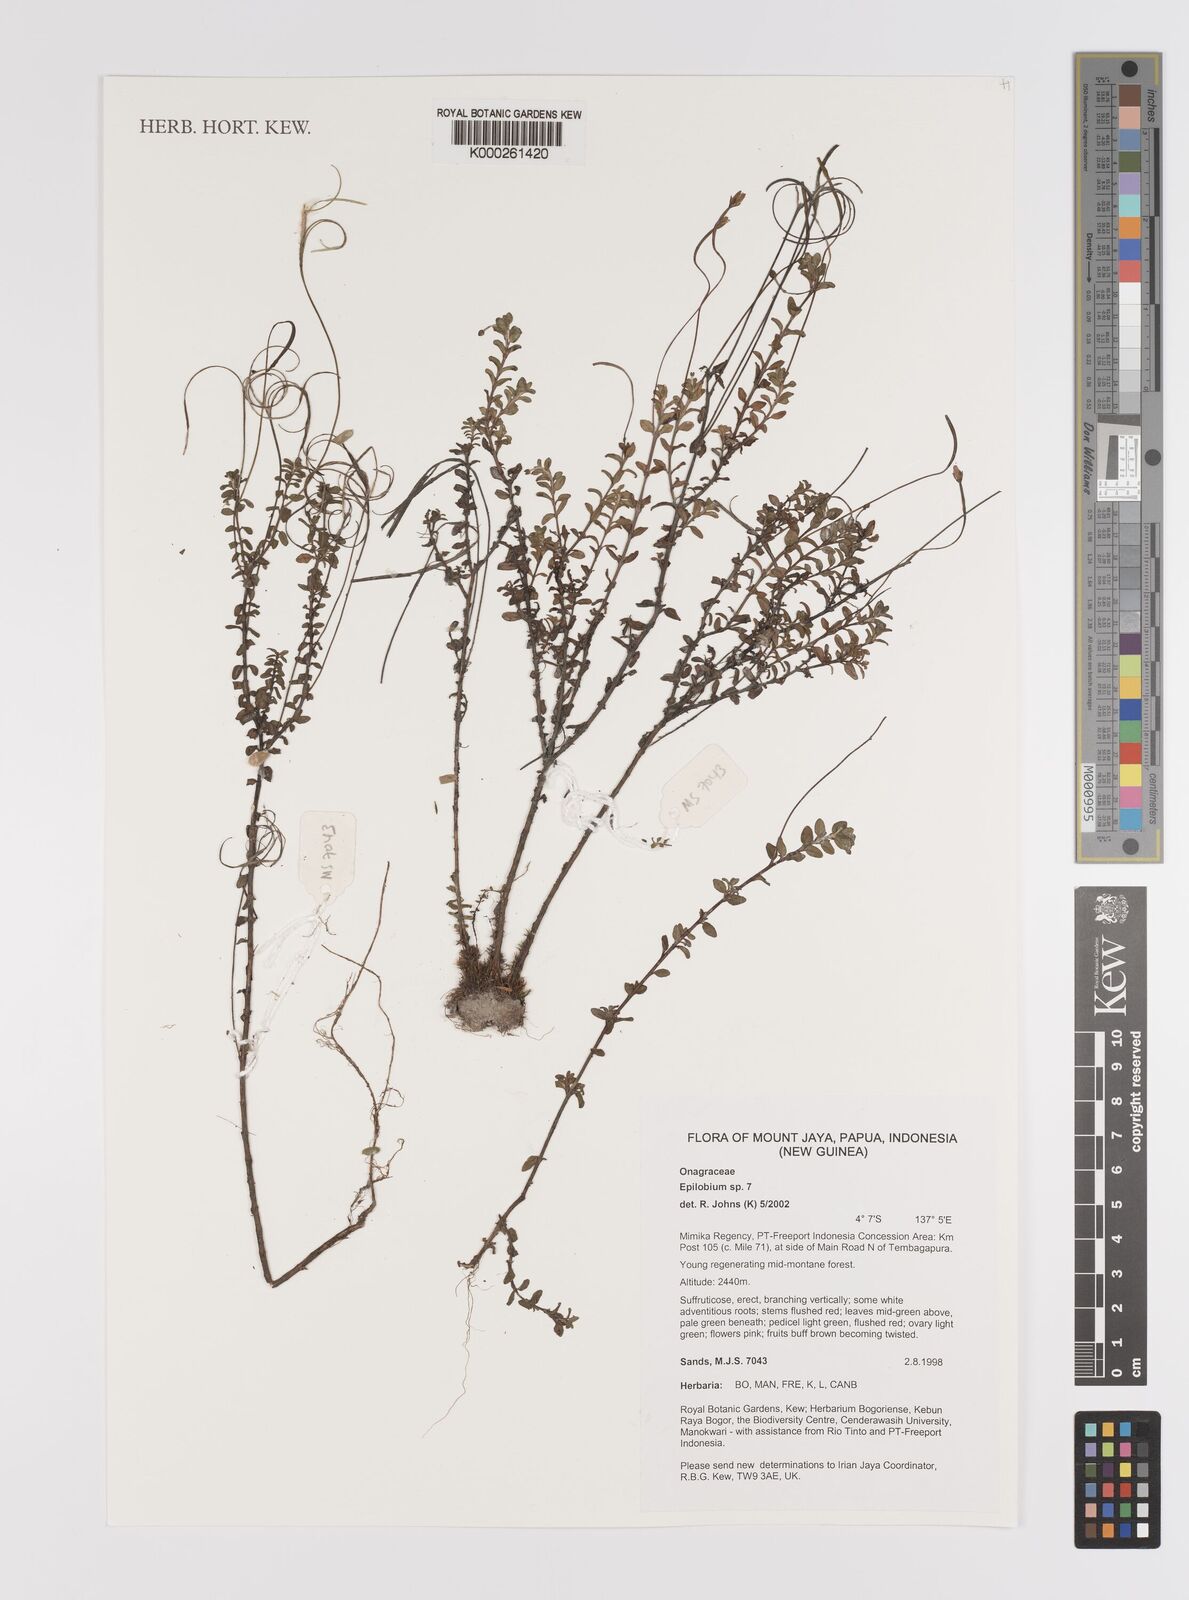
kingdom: Plantae
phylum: Tracheophyta
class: Magnoliopsida
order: Myrtales
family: Onagraceae
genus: Epilobium
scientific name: Epilobium
